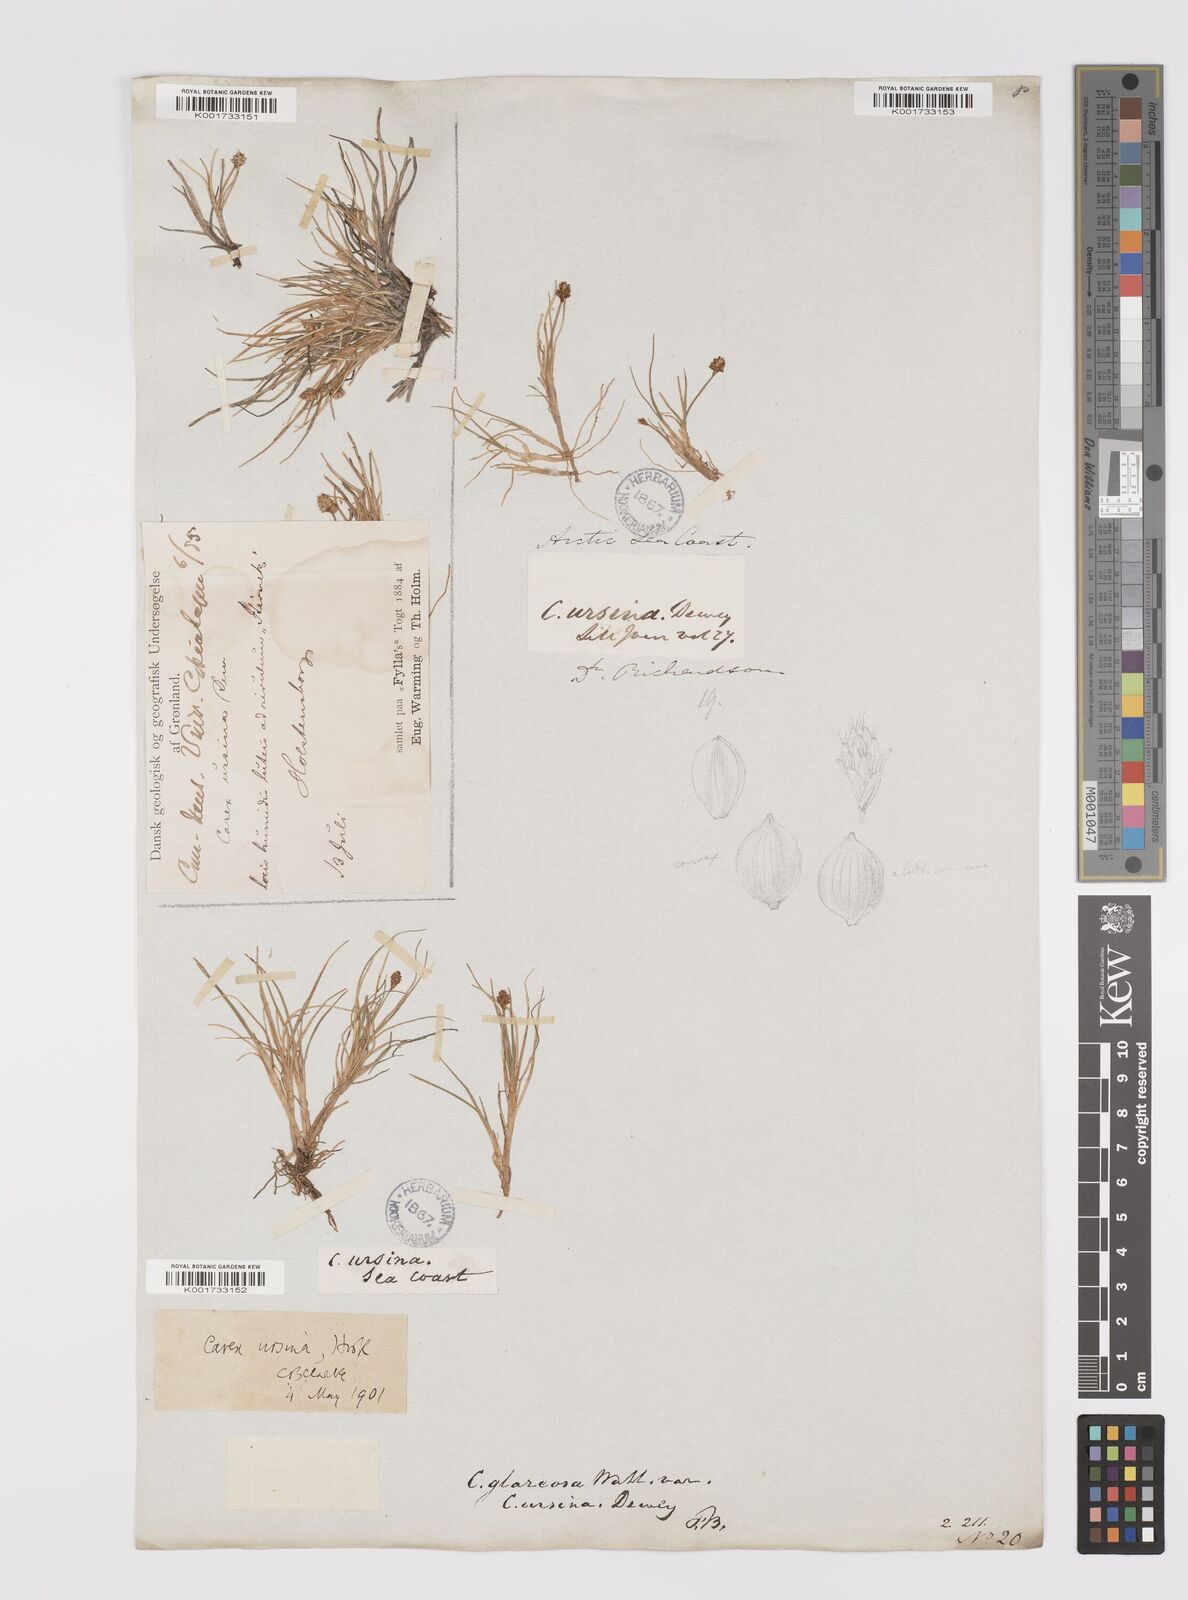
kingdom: Plantae
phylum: Tracheophyta
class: Liliopsida
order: Poales
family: Cyperaceae
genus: Carex
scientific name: Carex ursina
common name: Bear sedge
